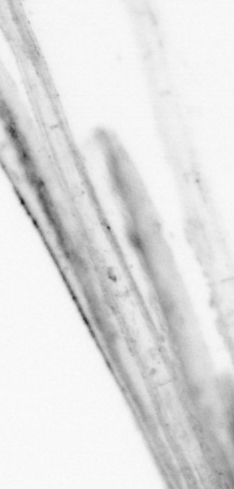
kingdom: Animalia
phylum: Chordata
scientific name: Chordata
